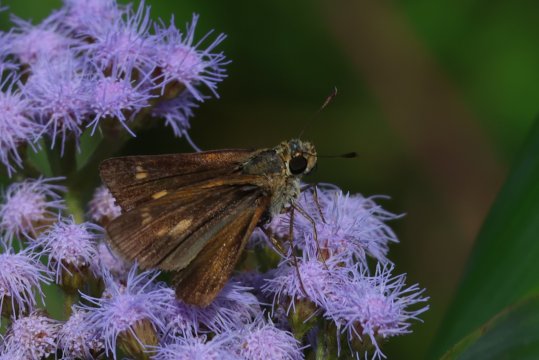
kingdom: Animalia
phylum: Arthropoda
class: Insecta
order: Lepidoptera
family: Hesperiidae
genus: Wallengrenia
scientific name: Wallengrenia
